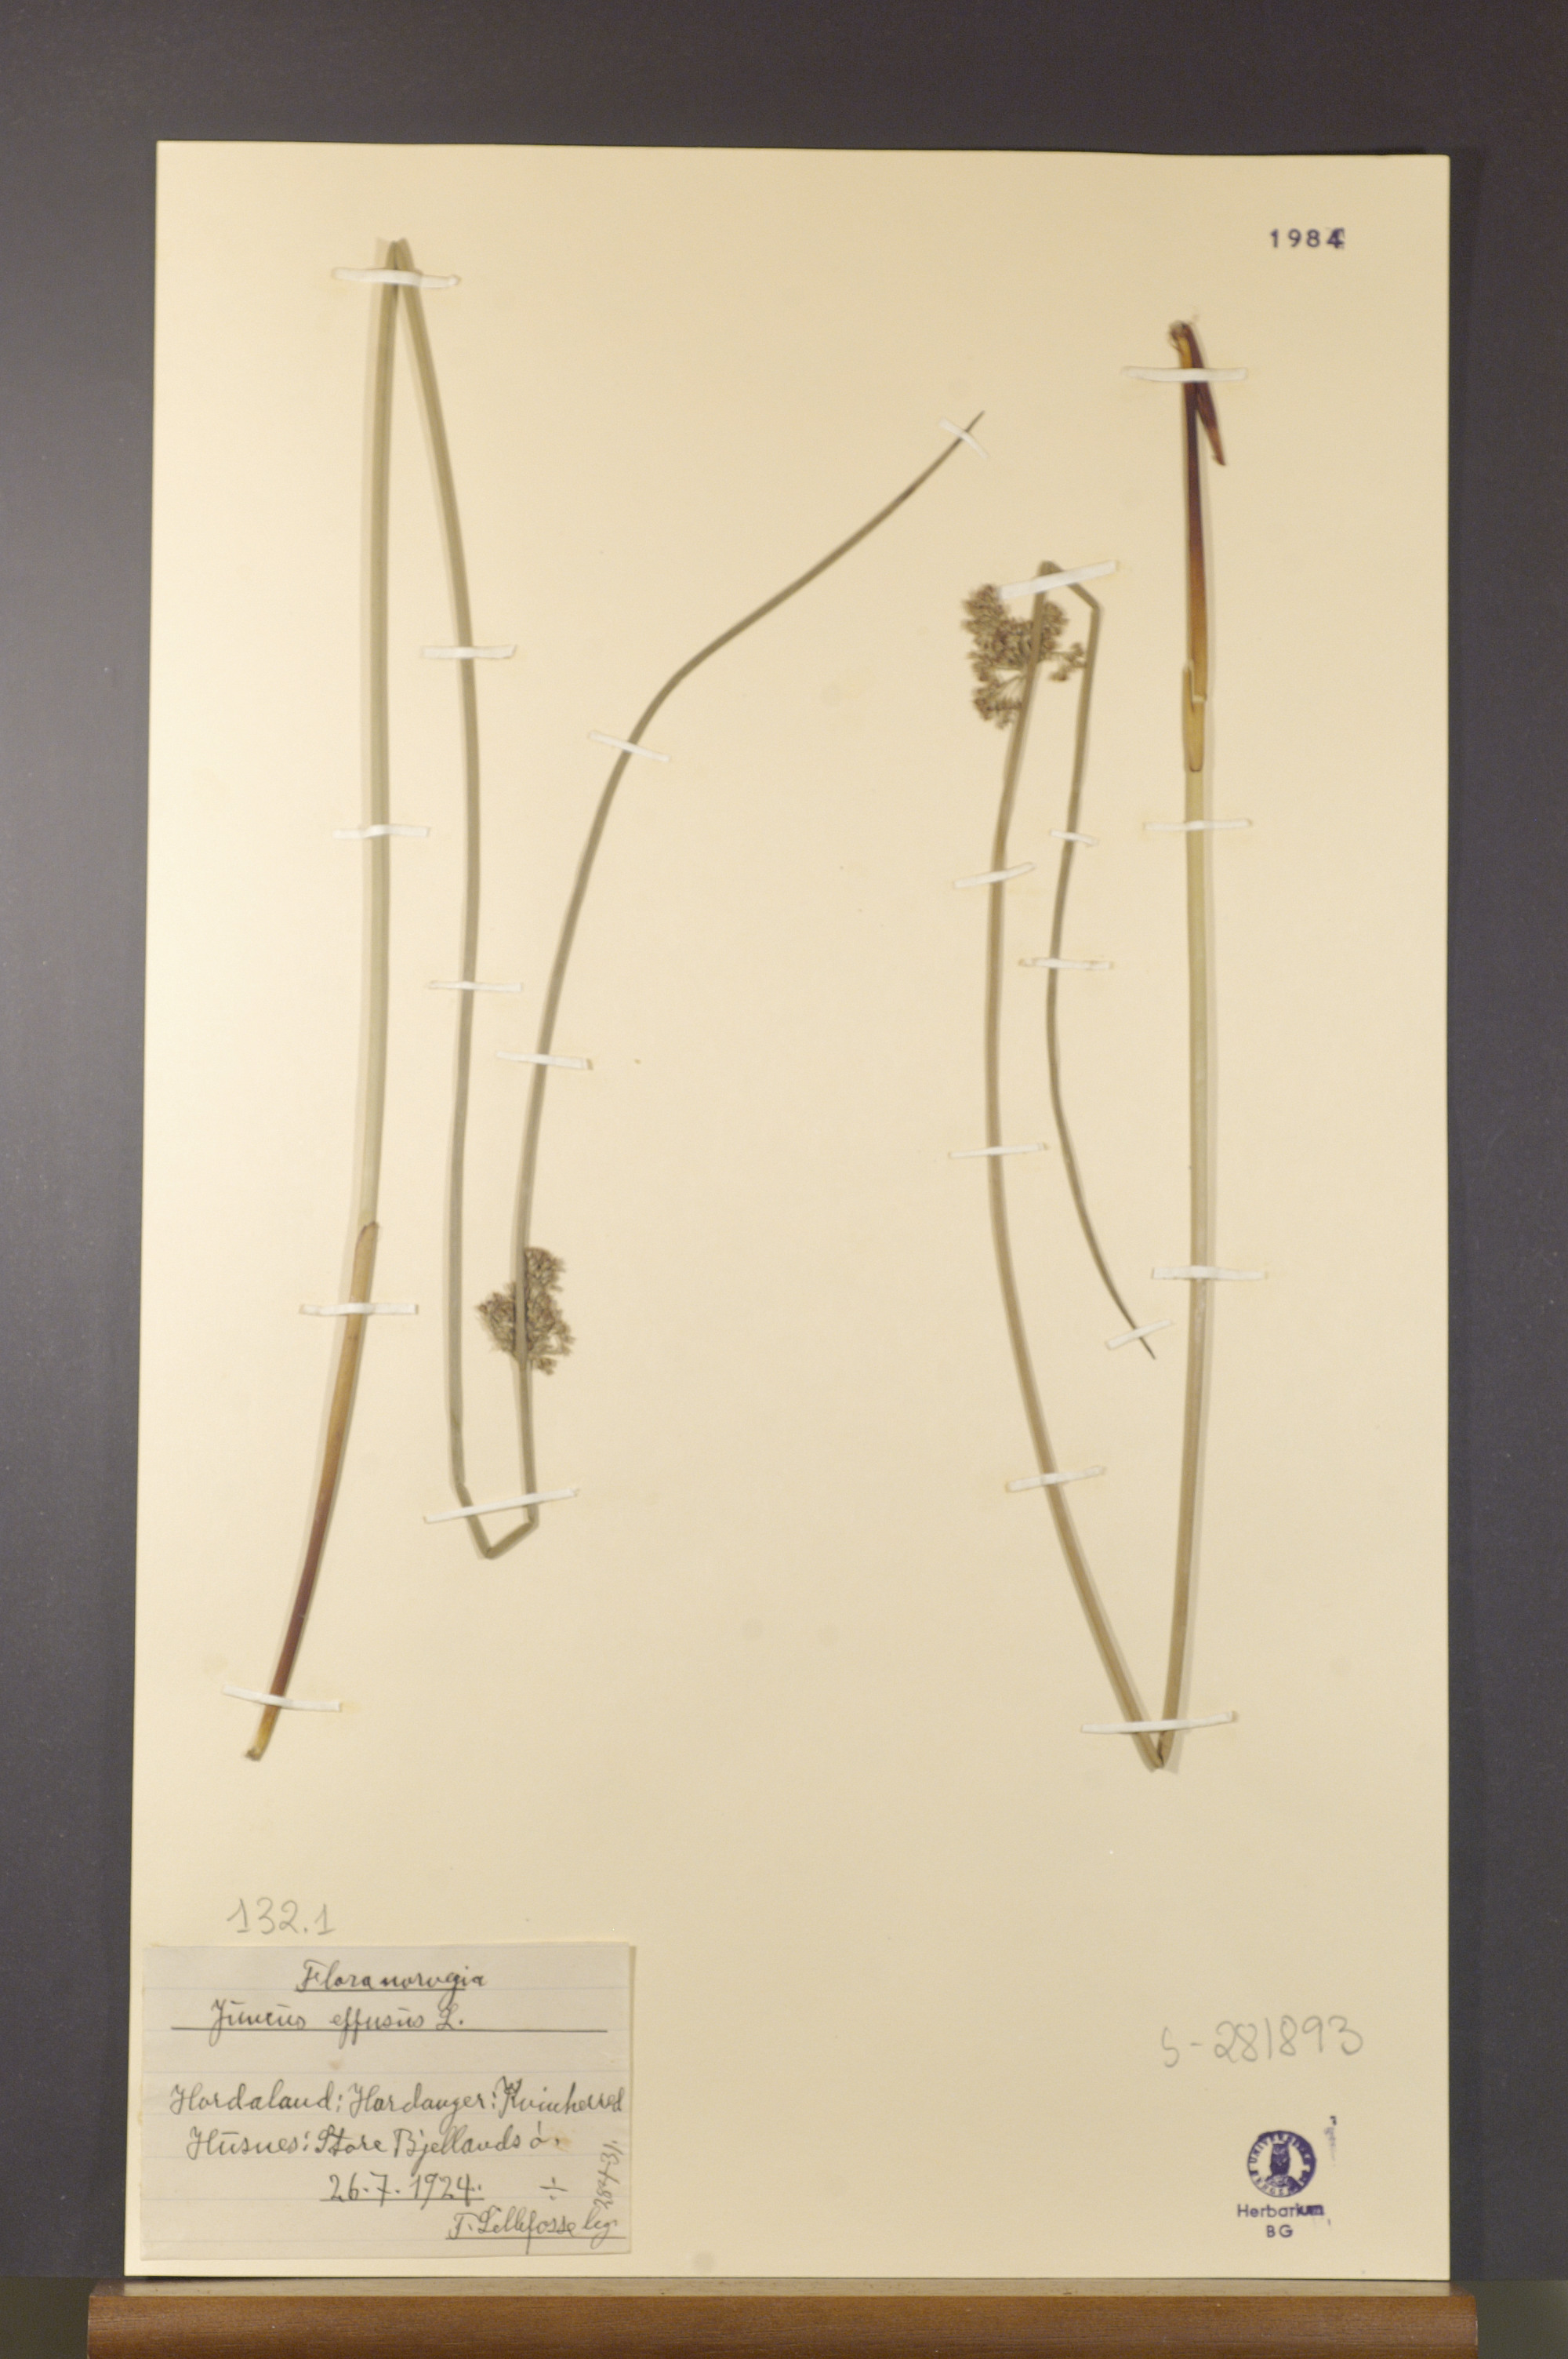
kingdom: Plantae
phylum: Tracheophyta
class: Liliopsida
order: Poales
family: Juncaceae
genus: Juncus
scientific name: Juncus effusus
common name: Soft rush
